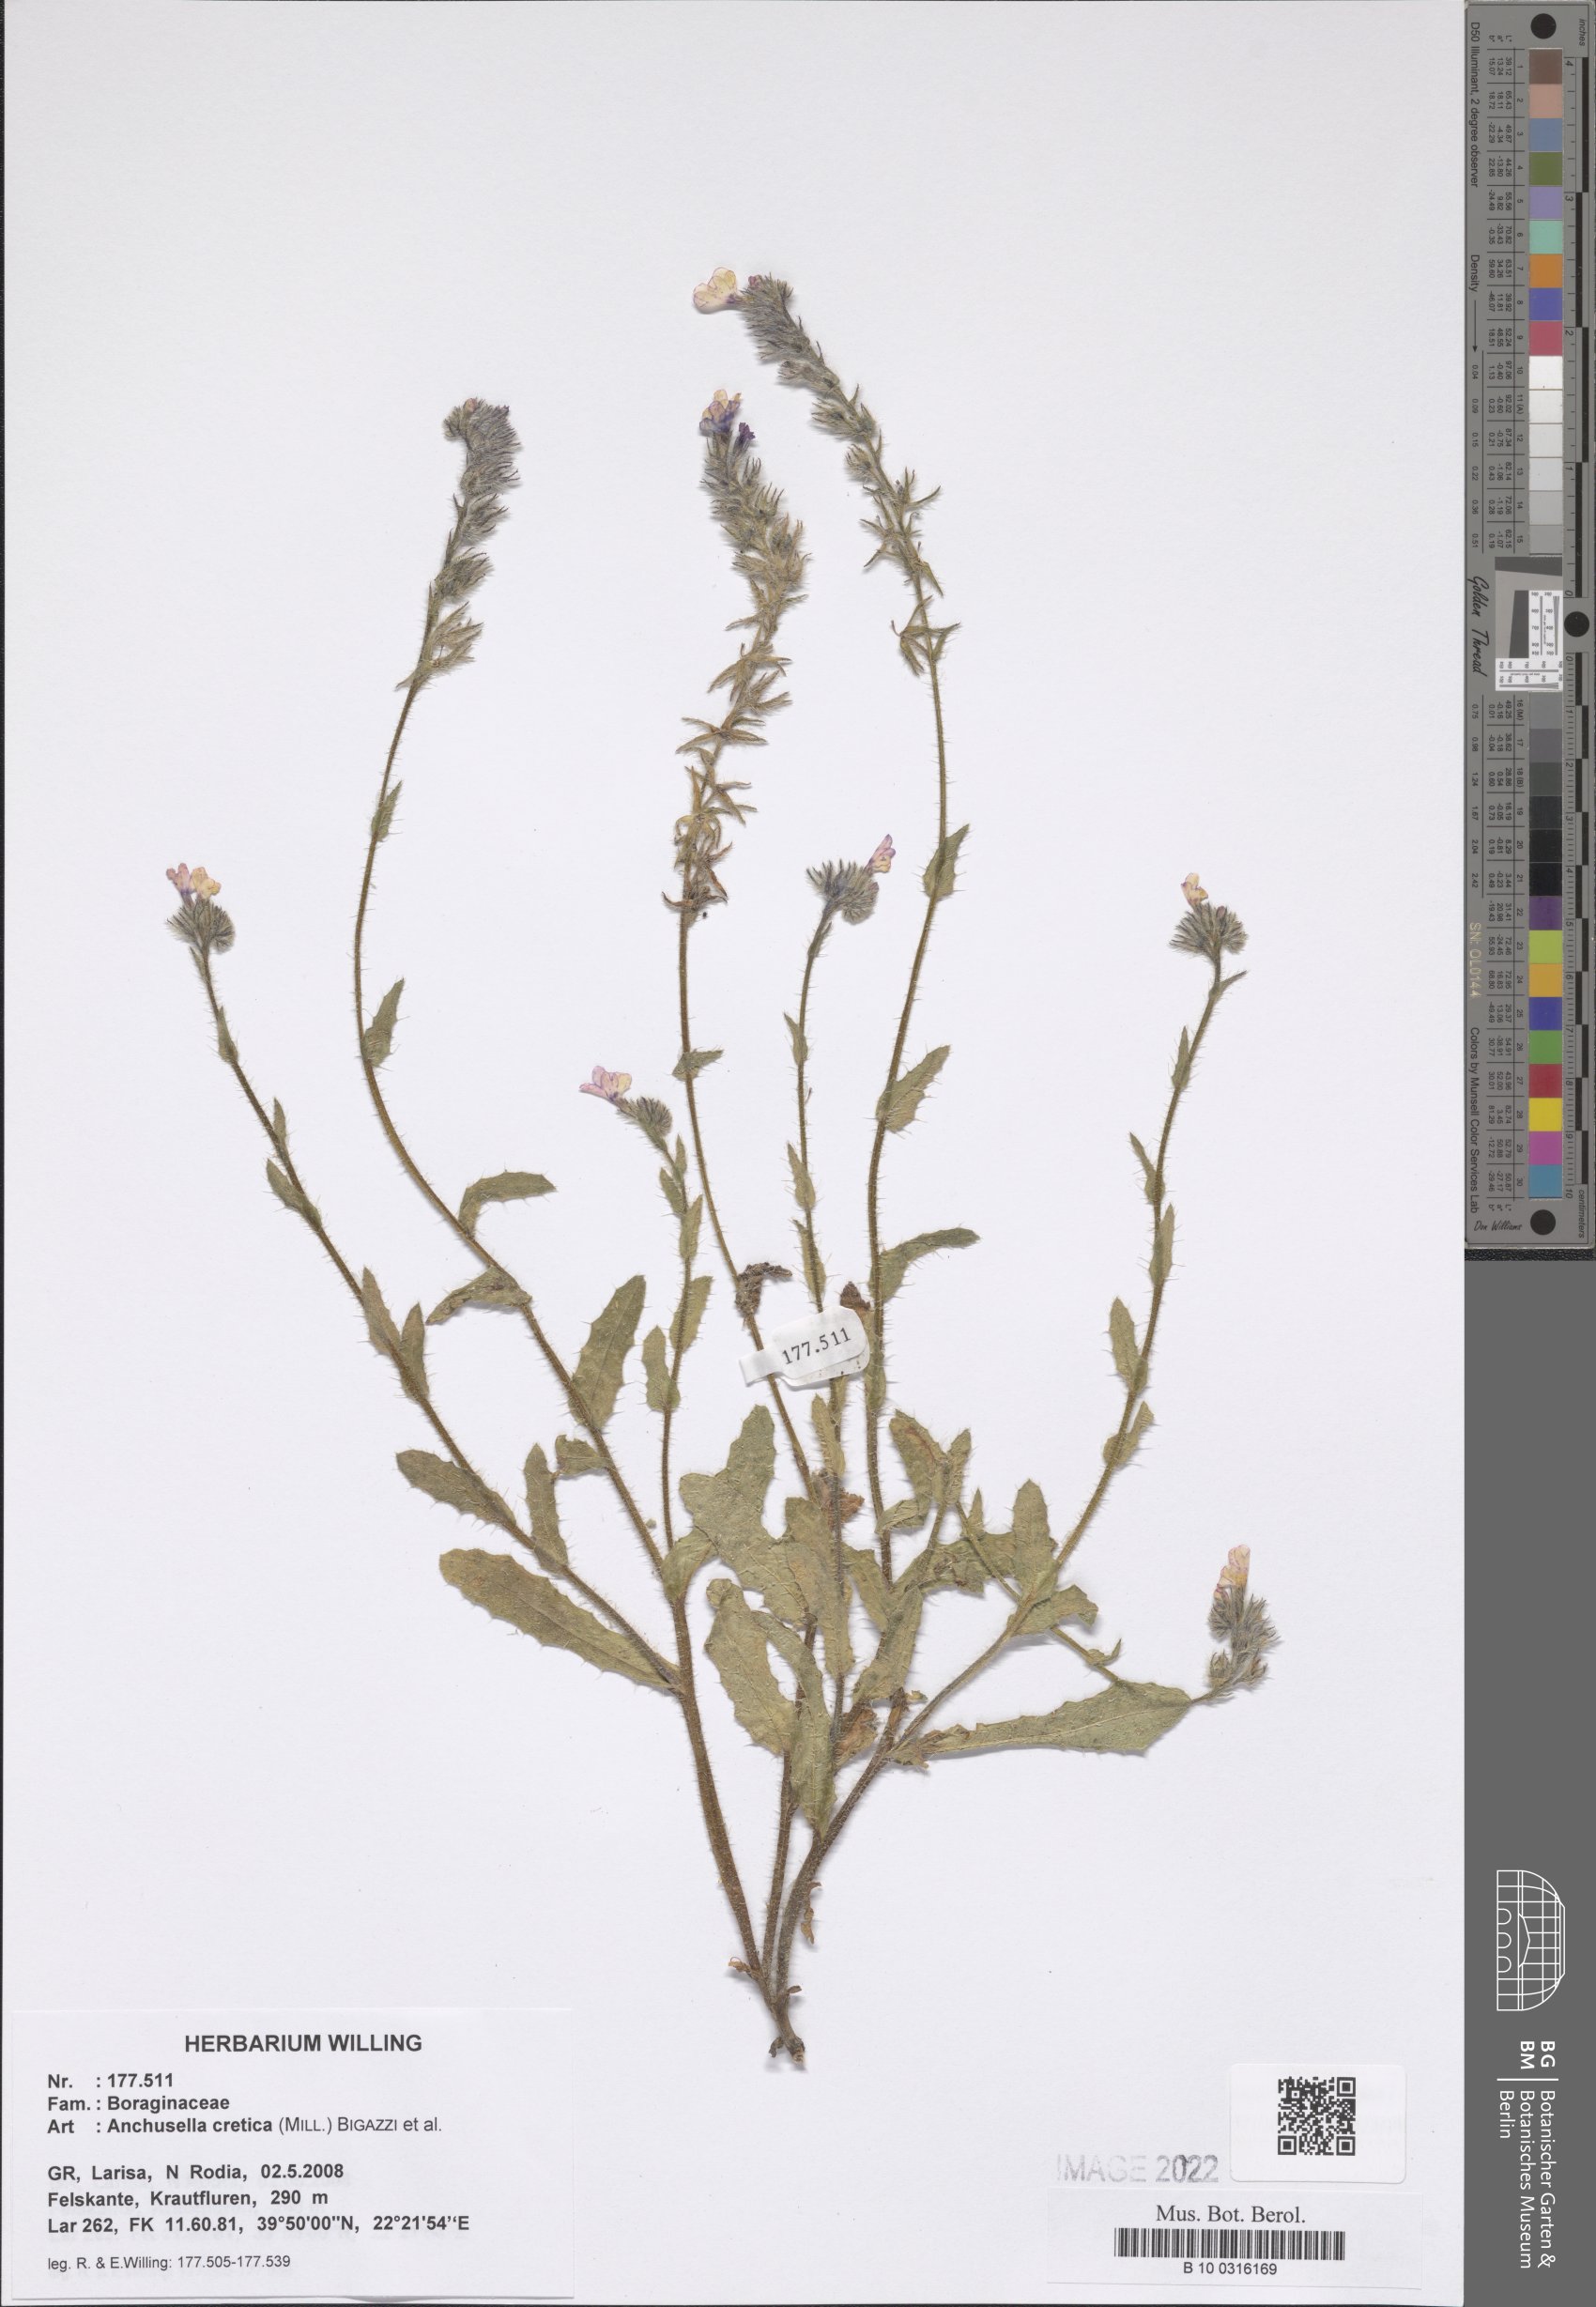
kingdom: Plantae
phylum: Tracheophyta
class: Magnoliopsida
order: Boraginales
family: Boraginaceae
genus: Anchusella
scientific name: Anchusella cretica
